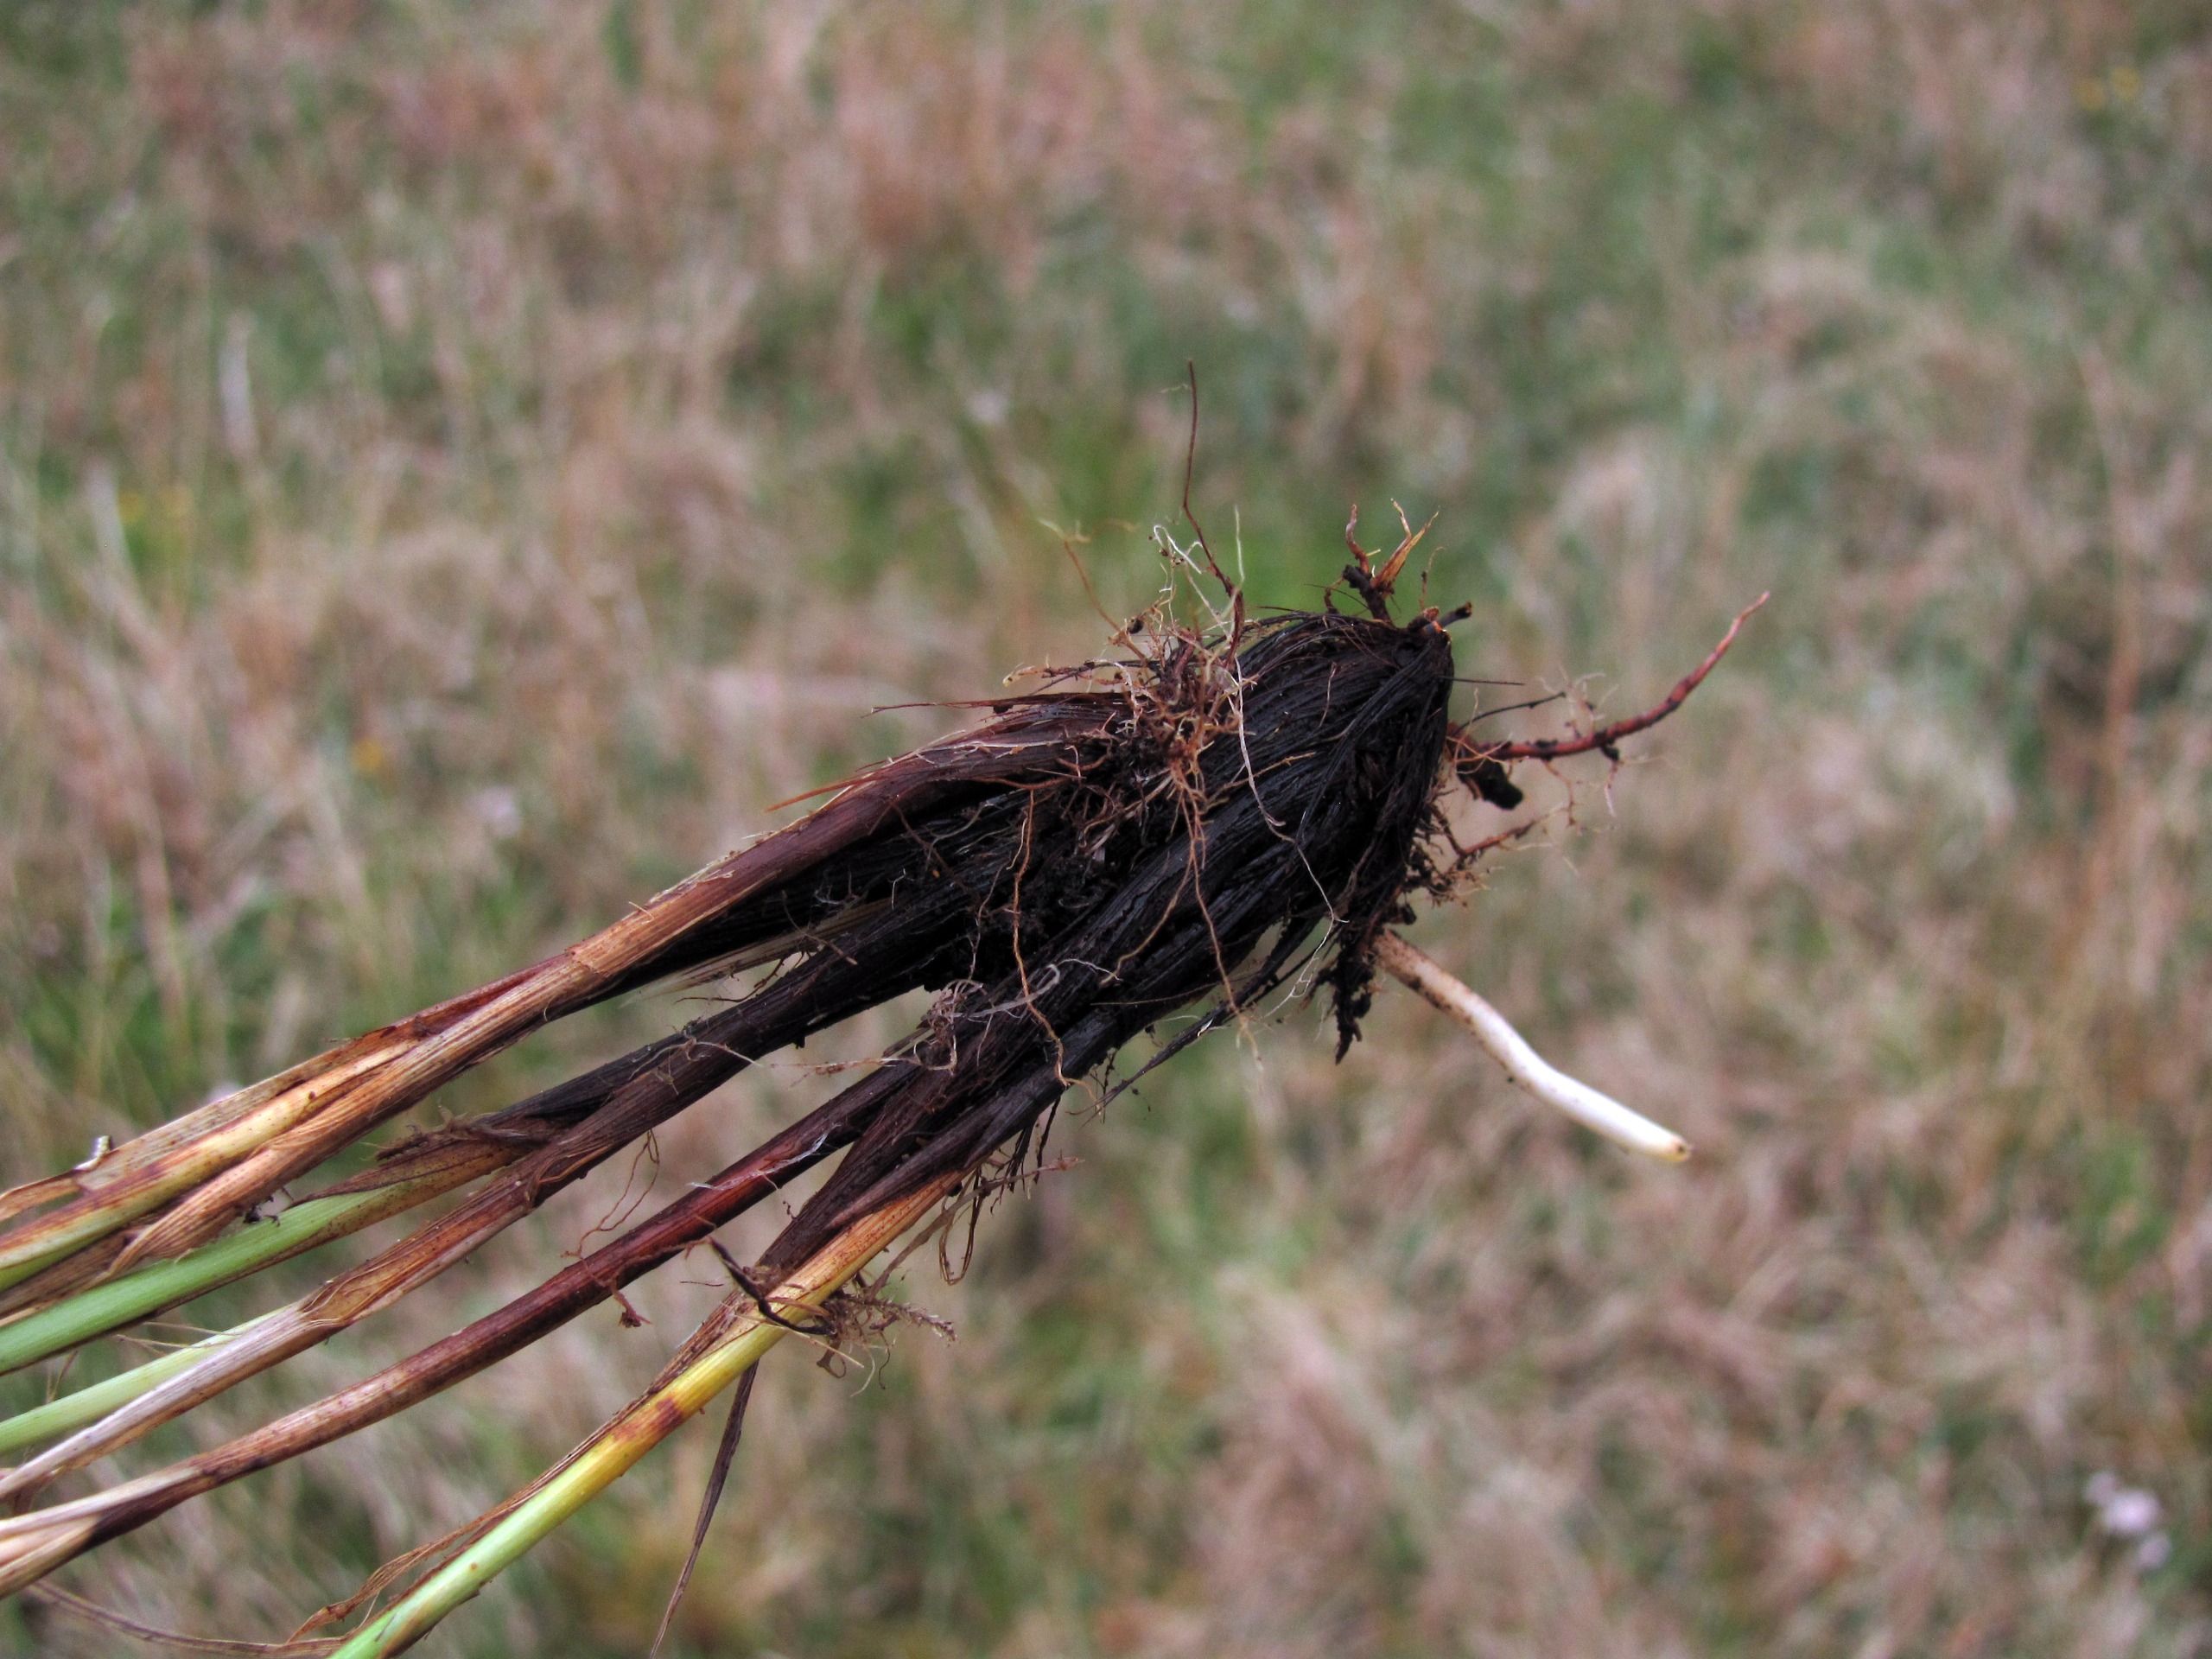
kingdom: Plantae
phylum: Tracheophyta
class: Liliopsida
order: Poales
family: Cyperaceae
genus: Carex
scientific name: Carex appropinquata
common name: Langakset star
